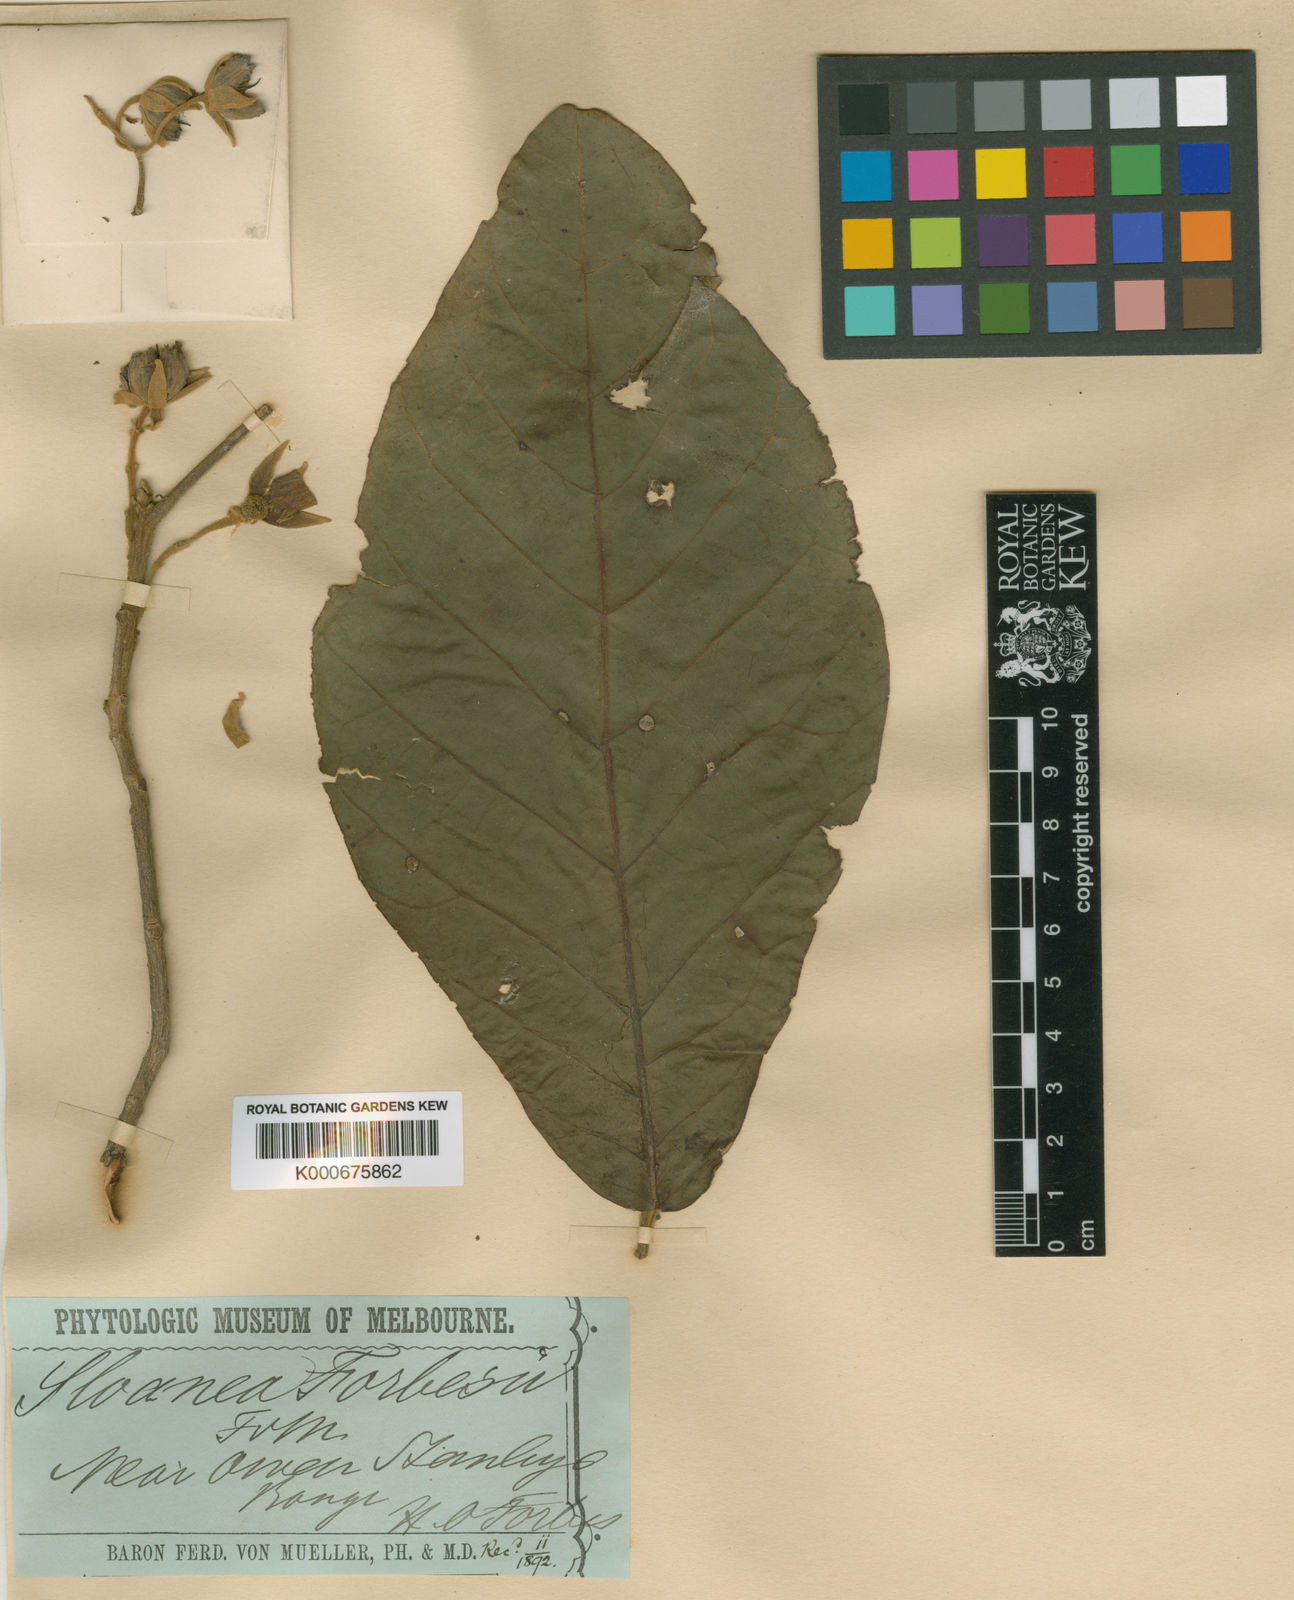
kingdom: Plantae
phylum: Tracheophyta
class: Magnoliopsida
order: Oxalidales
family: Elaeocarpaceae
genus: Sloanea
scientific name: Sloanea forbesii
